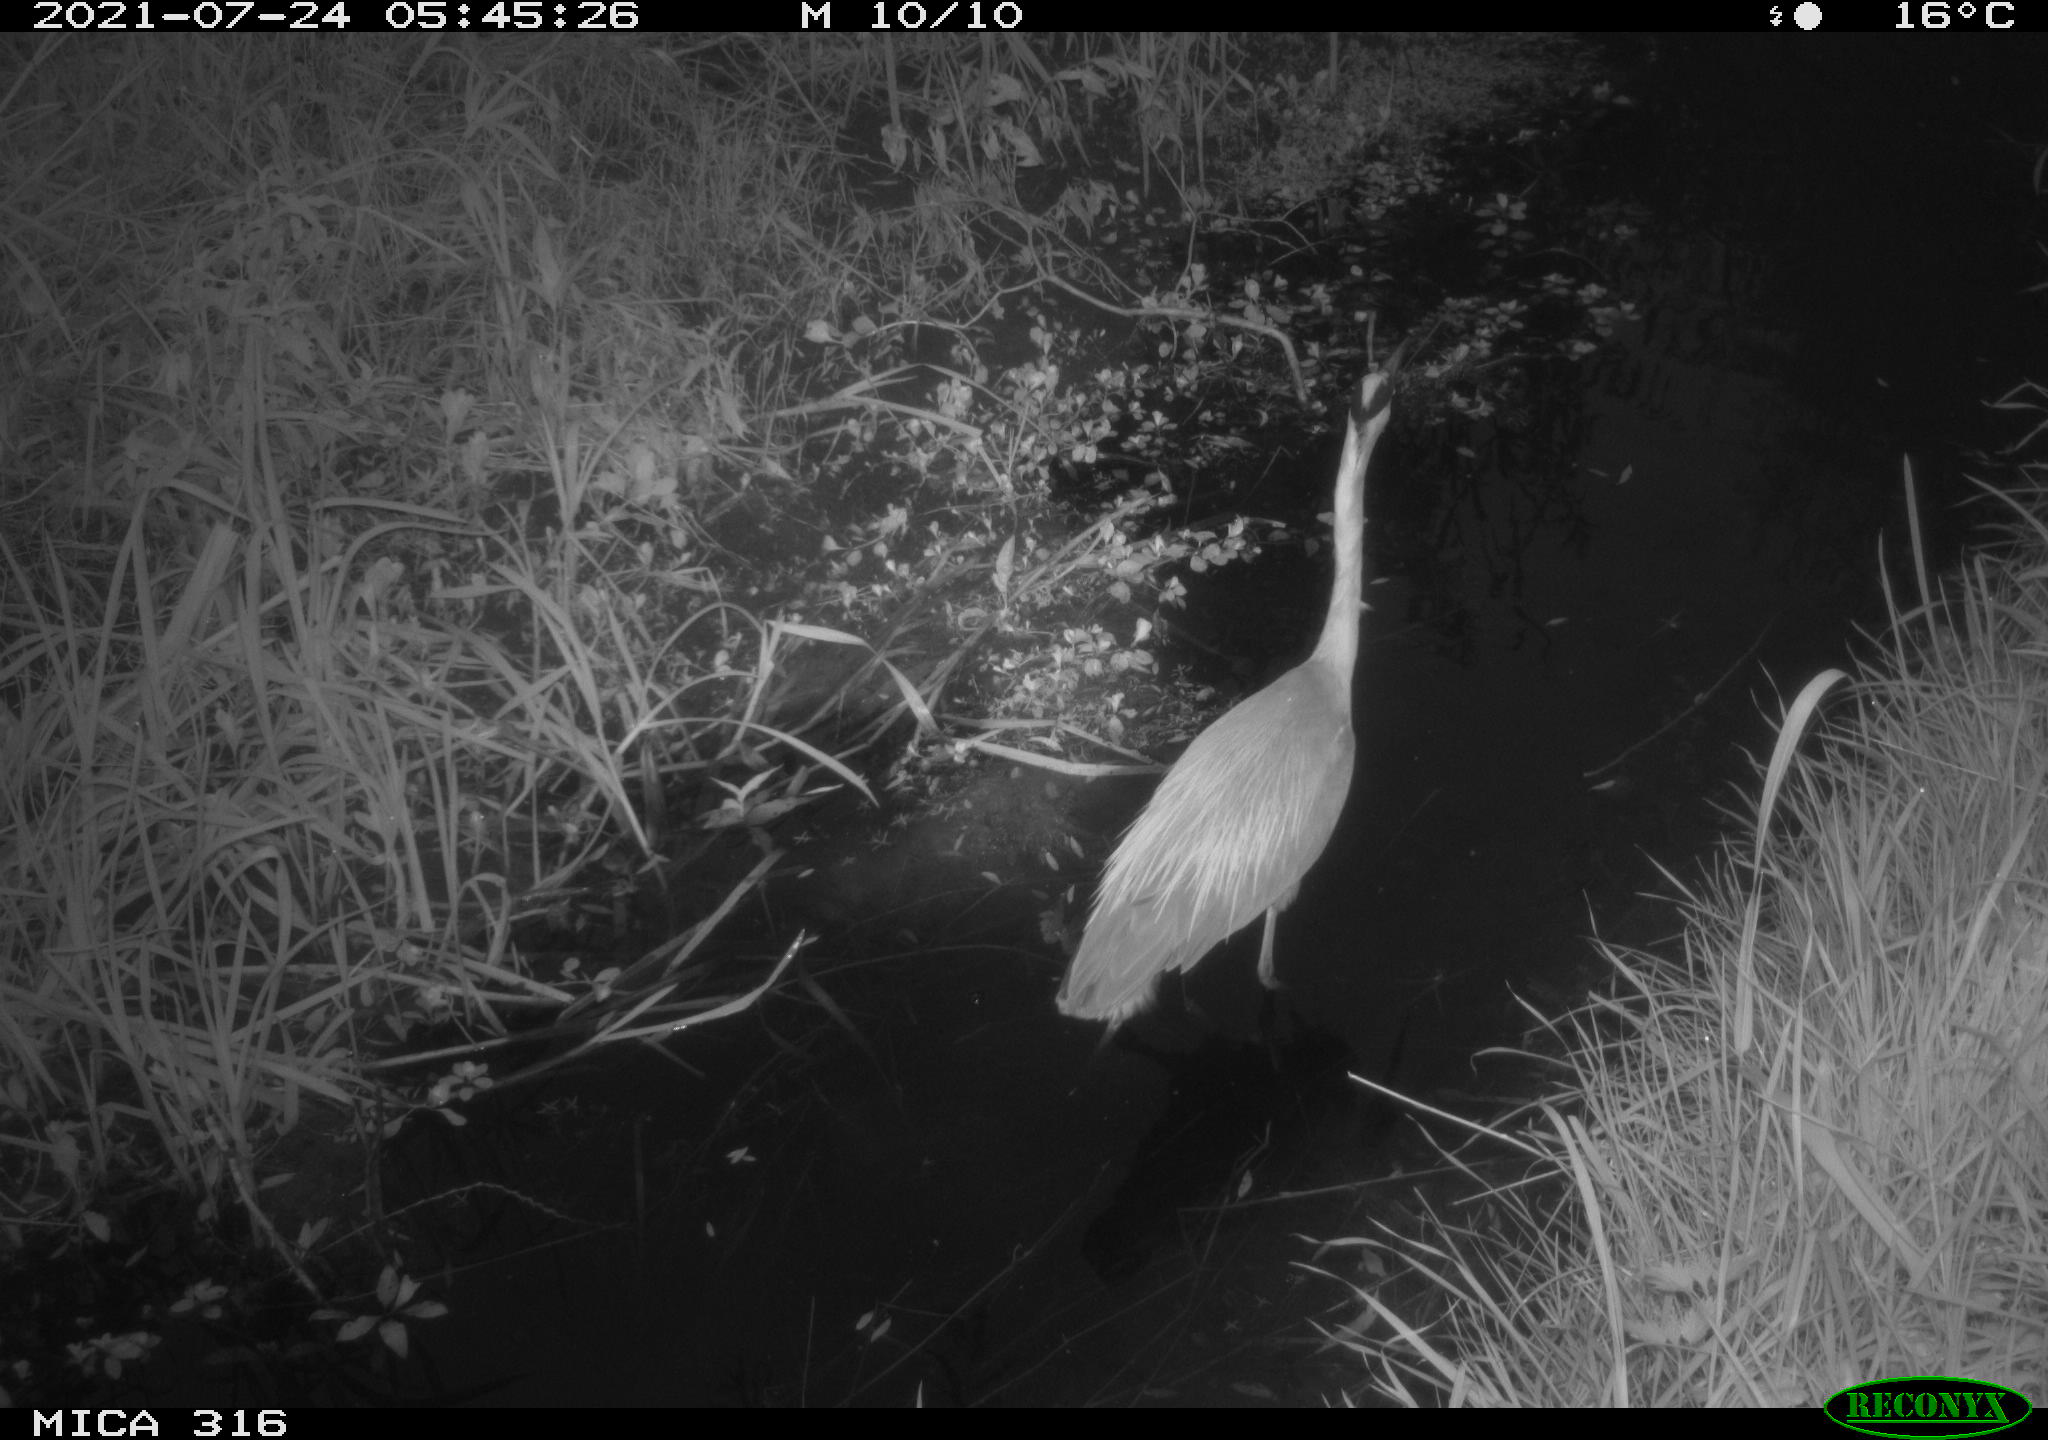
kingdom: Animalia
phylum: Chordata
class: Aves
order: Pelecaniformes
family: Ardeidae
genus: Ardea
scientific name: Ardea
